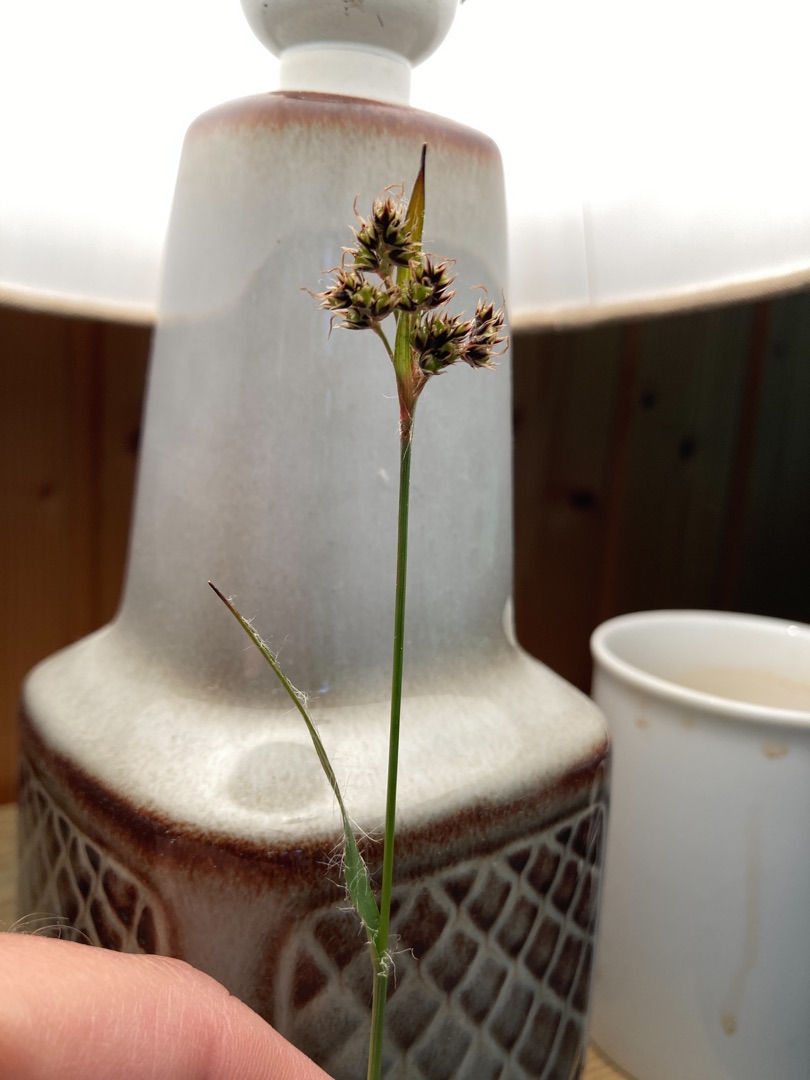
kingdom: Plantae
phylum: Tracheophyta
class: Liliopsida
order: Poales
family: Juncaceae
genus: Luzula
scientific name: Luzula multiflora
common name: Mangeblomstret frytle
